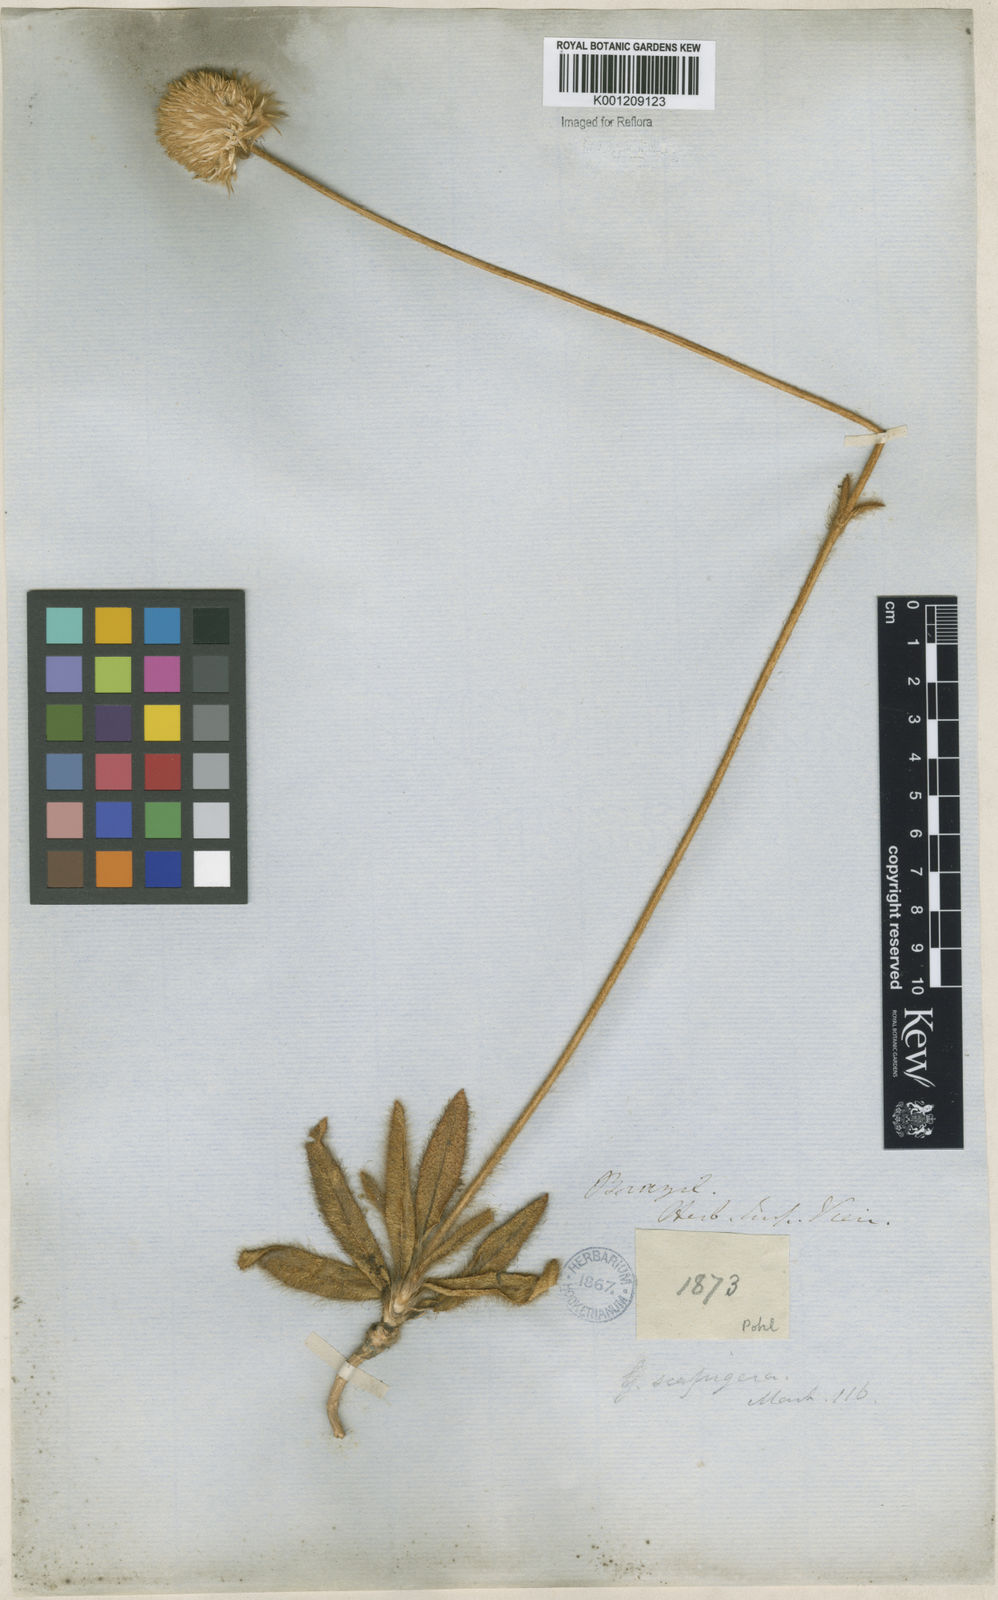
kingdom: Plantae
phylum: Tracheophyta
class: Magnoliopsida
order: Caryophyllales
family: Amaranthaceae
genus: Gomphrena
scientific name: Gomphrena scapigera
